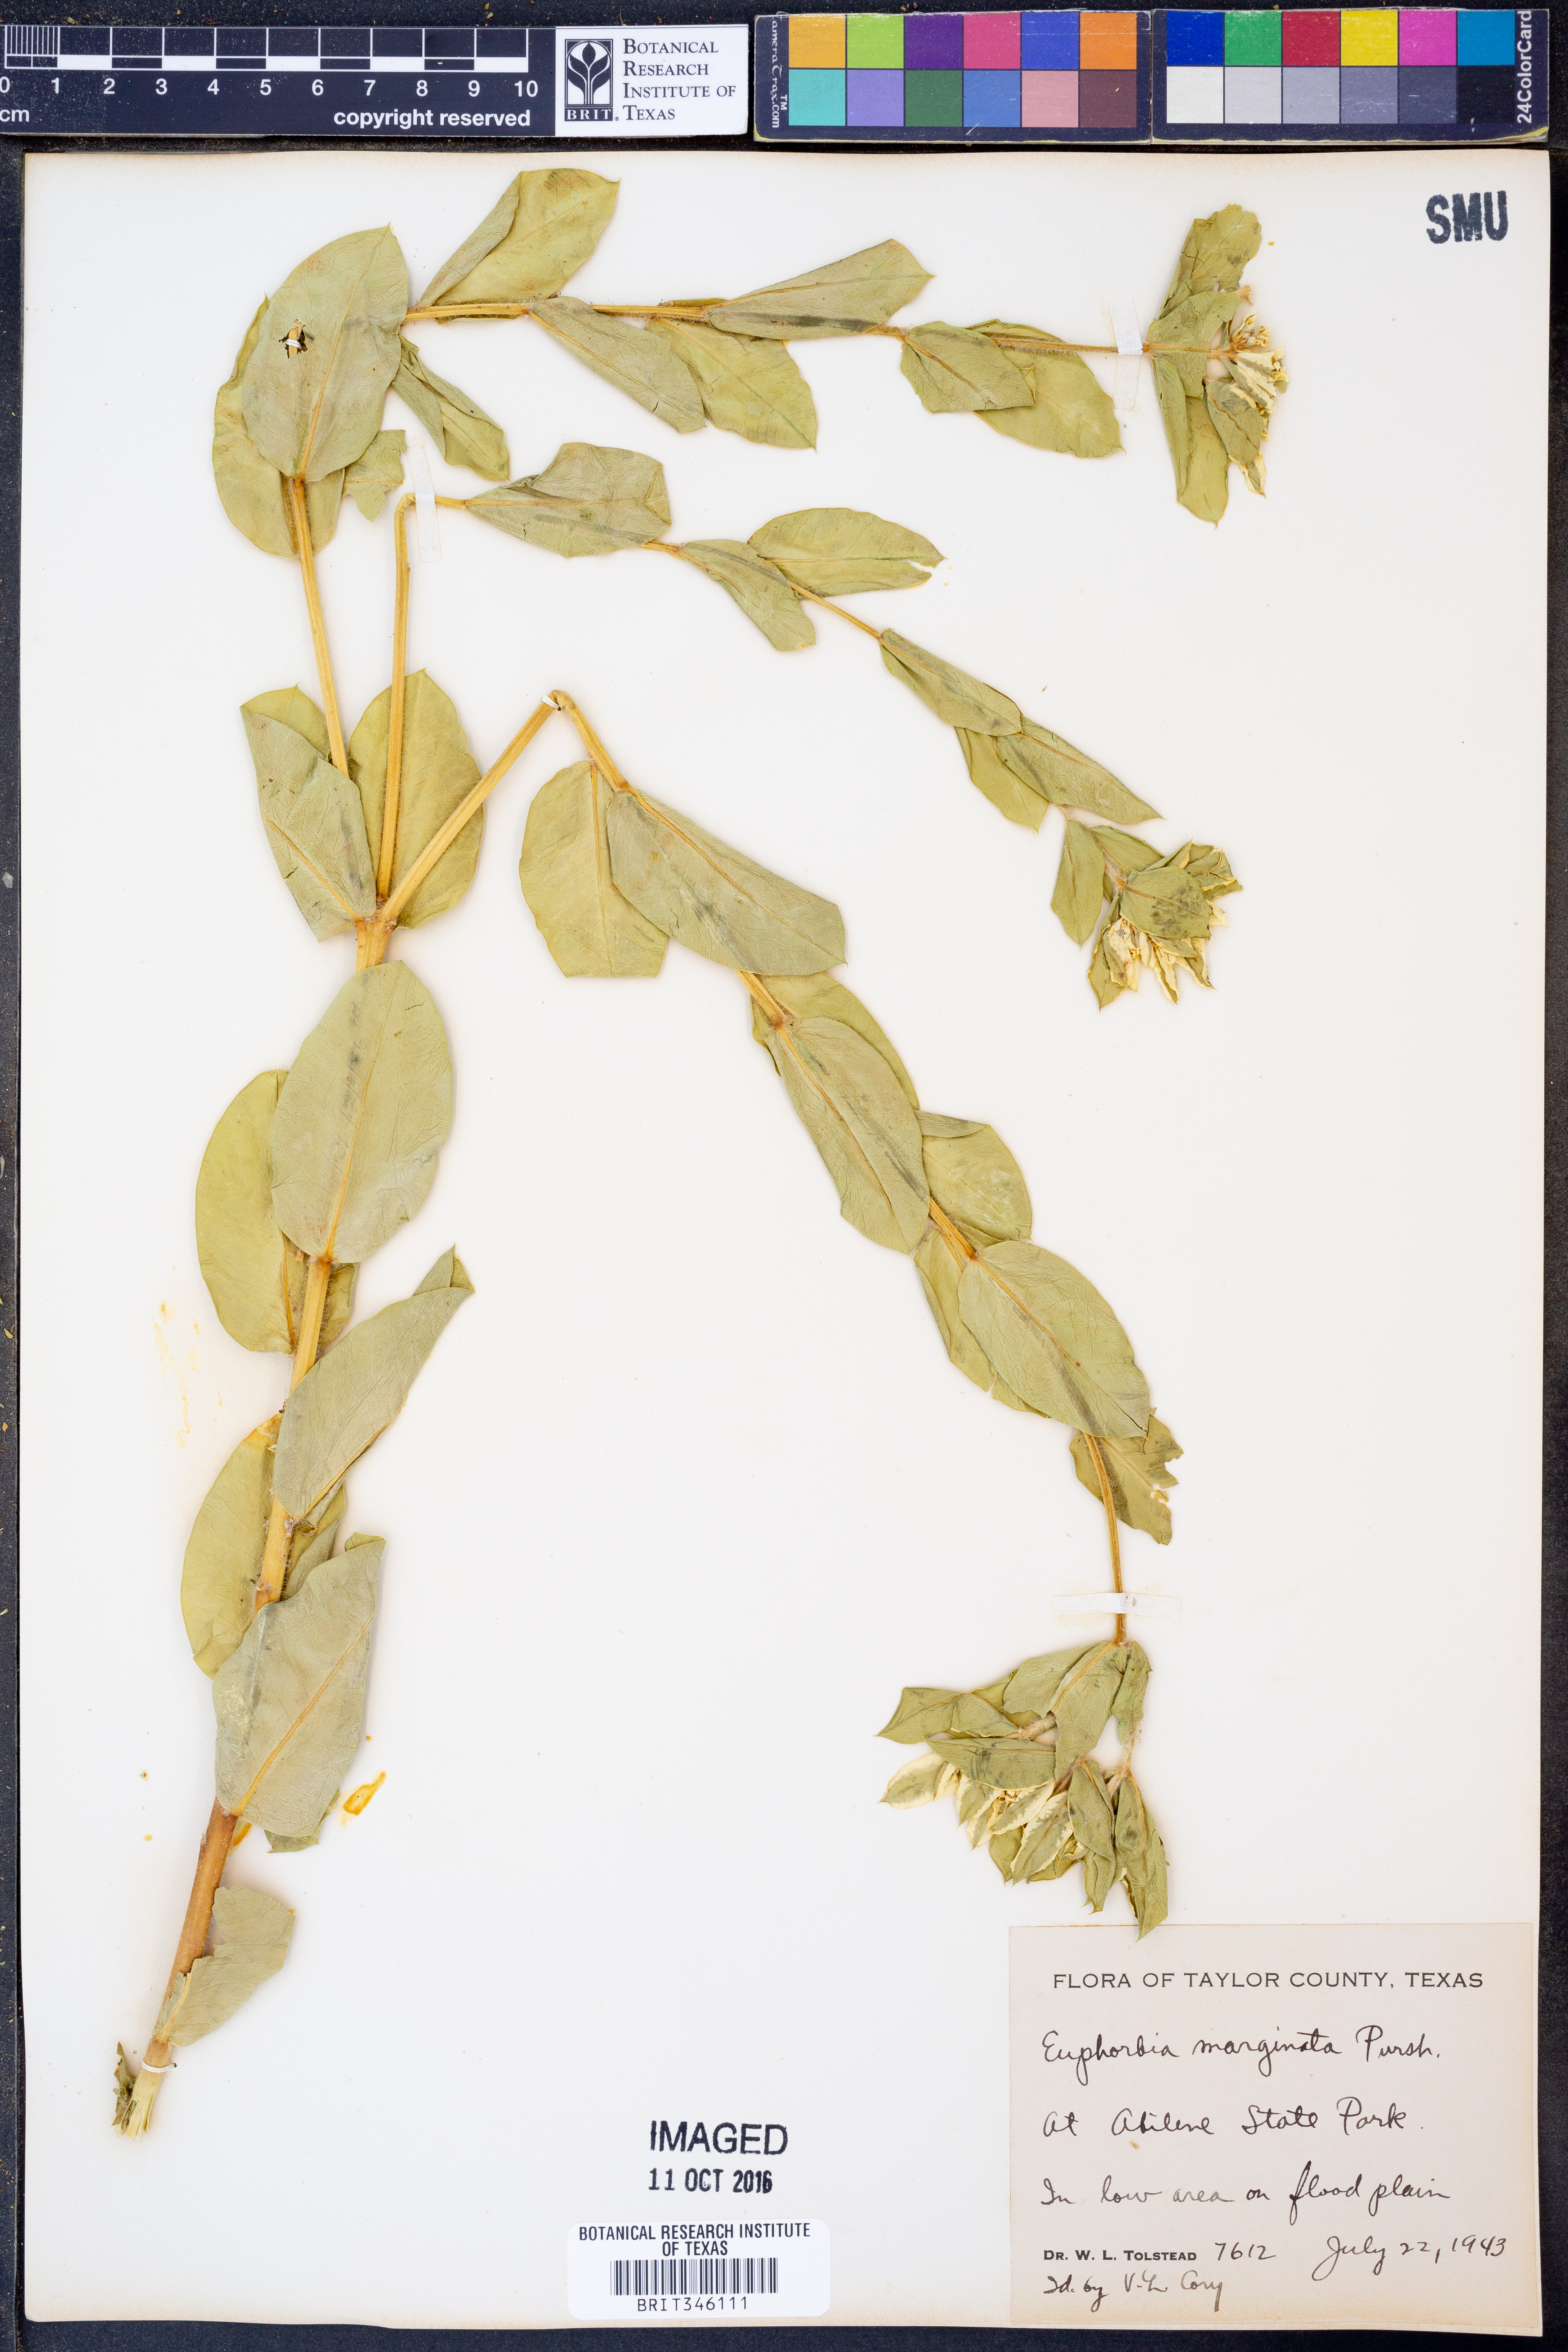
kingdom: Plantae
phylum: Tracheophyta
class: Magnoliopsida
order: Malpighiales
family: Euphorbiaceae
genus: Euphorbia
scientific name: Euphorbia marginata
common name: Ghostweed
